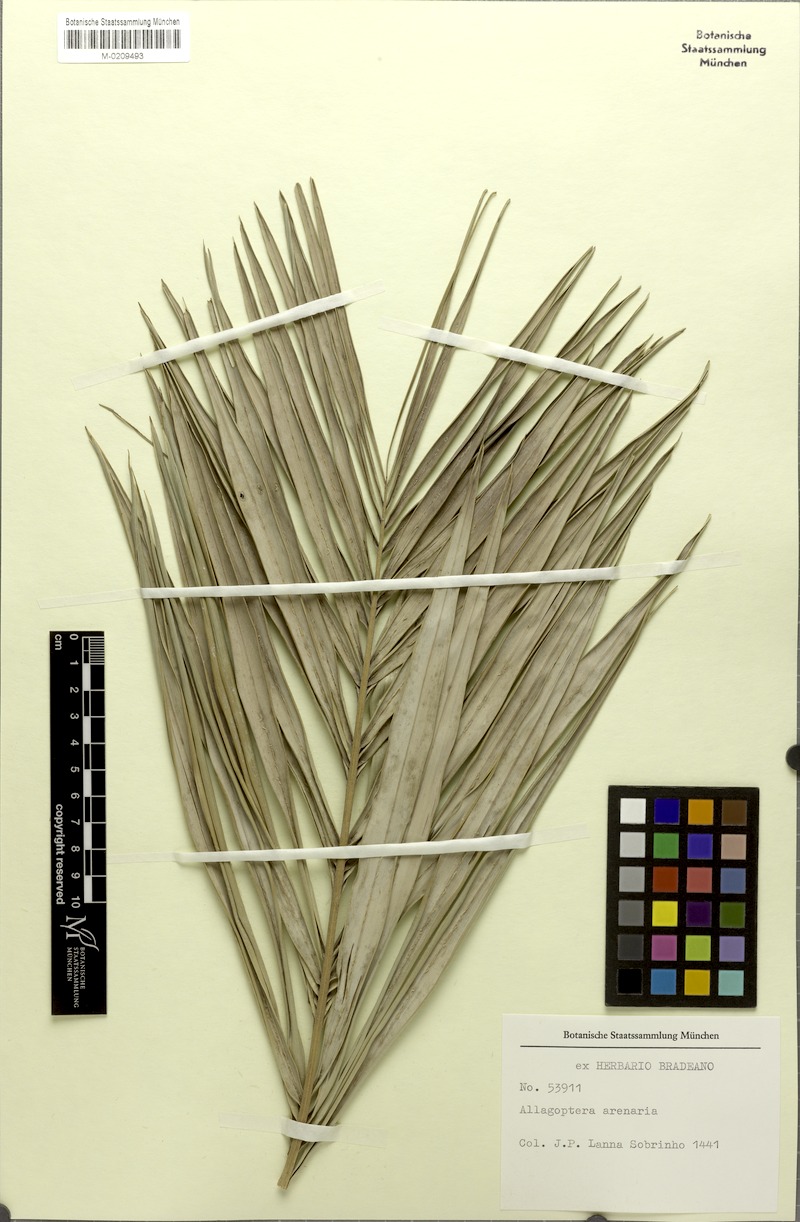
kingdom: Plantae
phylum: Tracheophyta
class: Liliopsida
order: Arecales
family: Arecaceae
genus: Allagoptera
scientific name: Allagoptera arenaria
